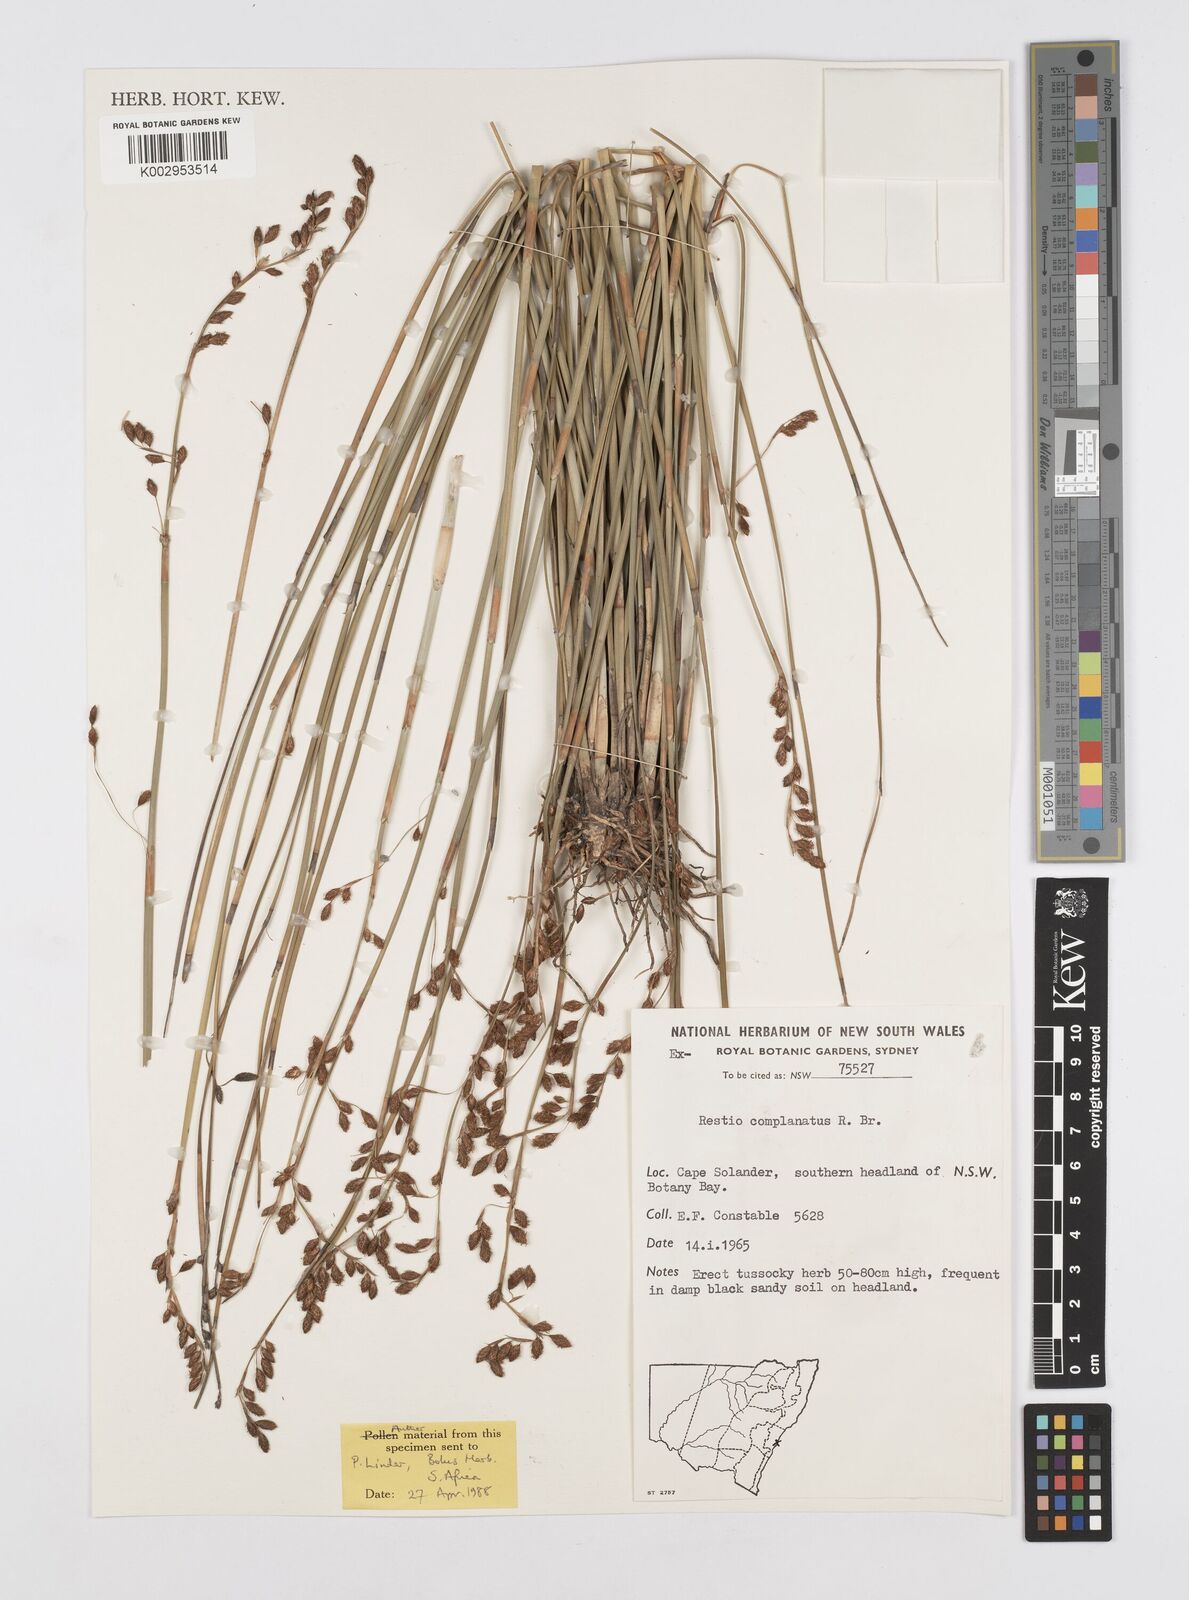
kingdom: Plantae
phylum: Tracheophyta
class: Liliopsida
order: Poales
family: Restionaceae
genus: Eurychorda
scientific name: Eurychorda complanata
